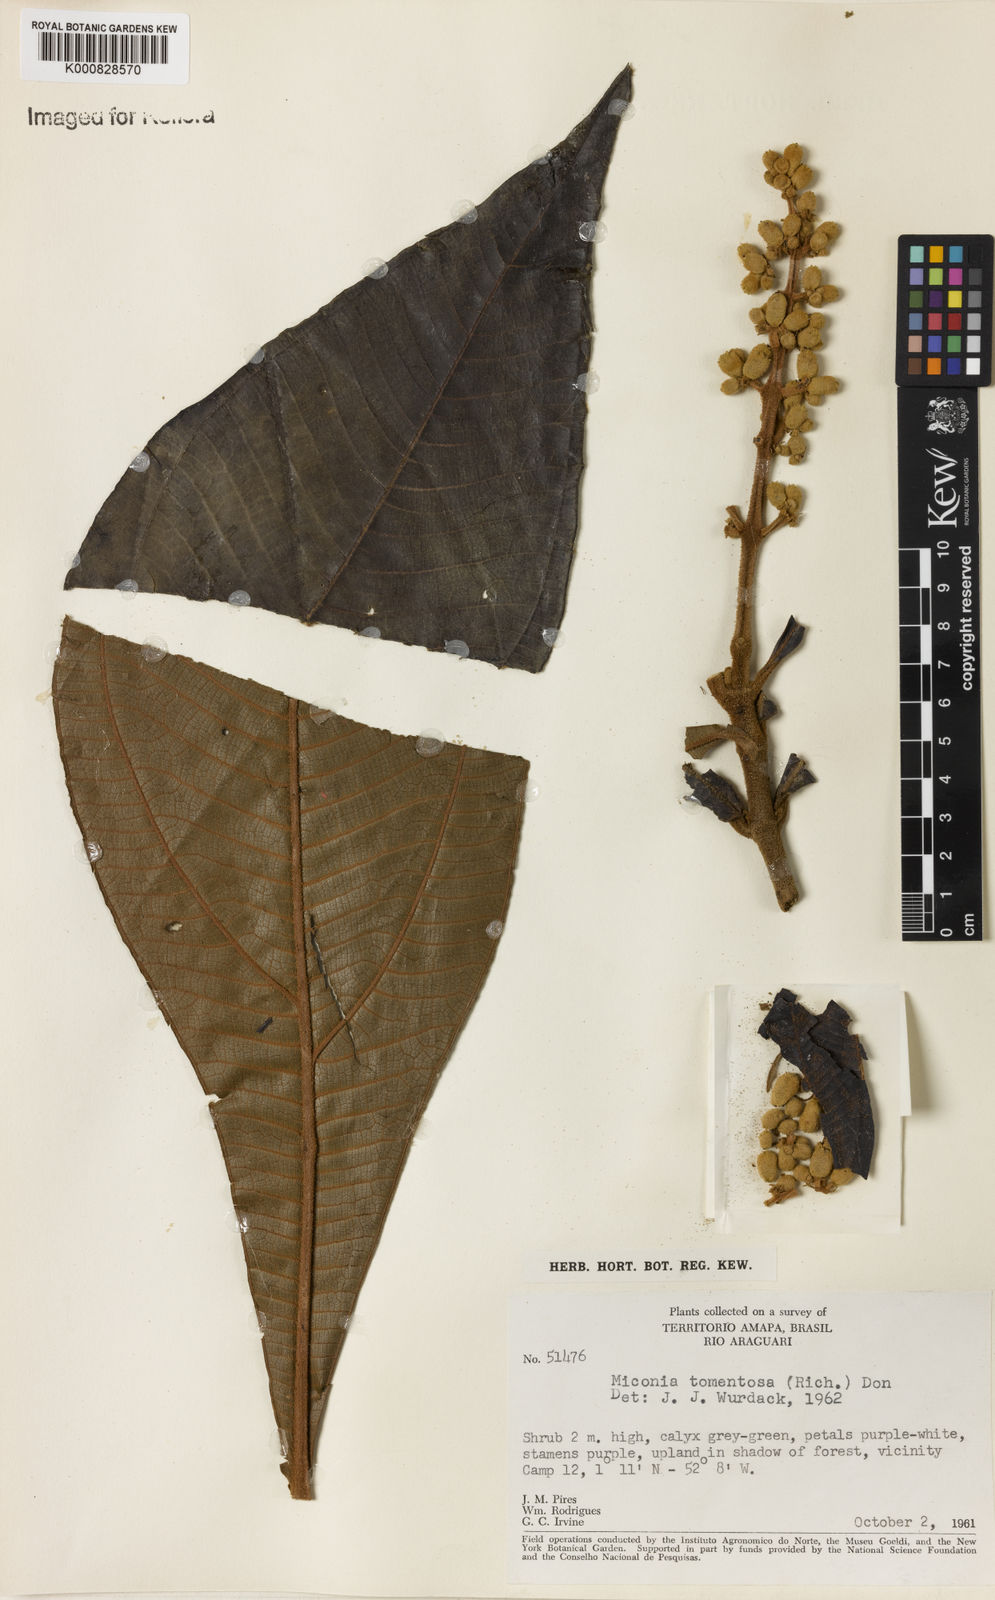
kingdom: Plantae
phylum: Tracheophyta
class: Magnoliopsida
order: Myrtales
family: Melastomataceae
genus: Miconia
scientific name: Miconia tomentosa
